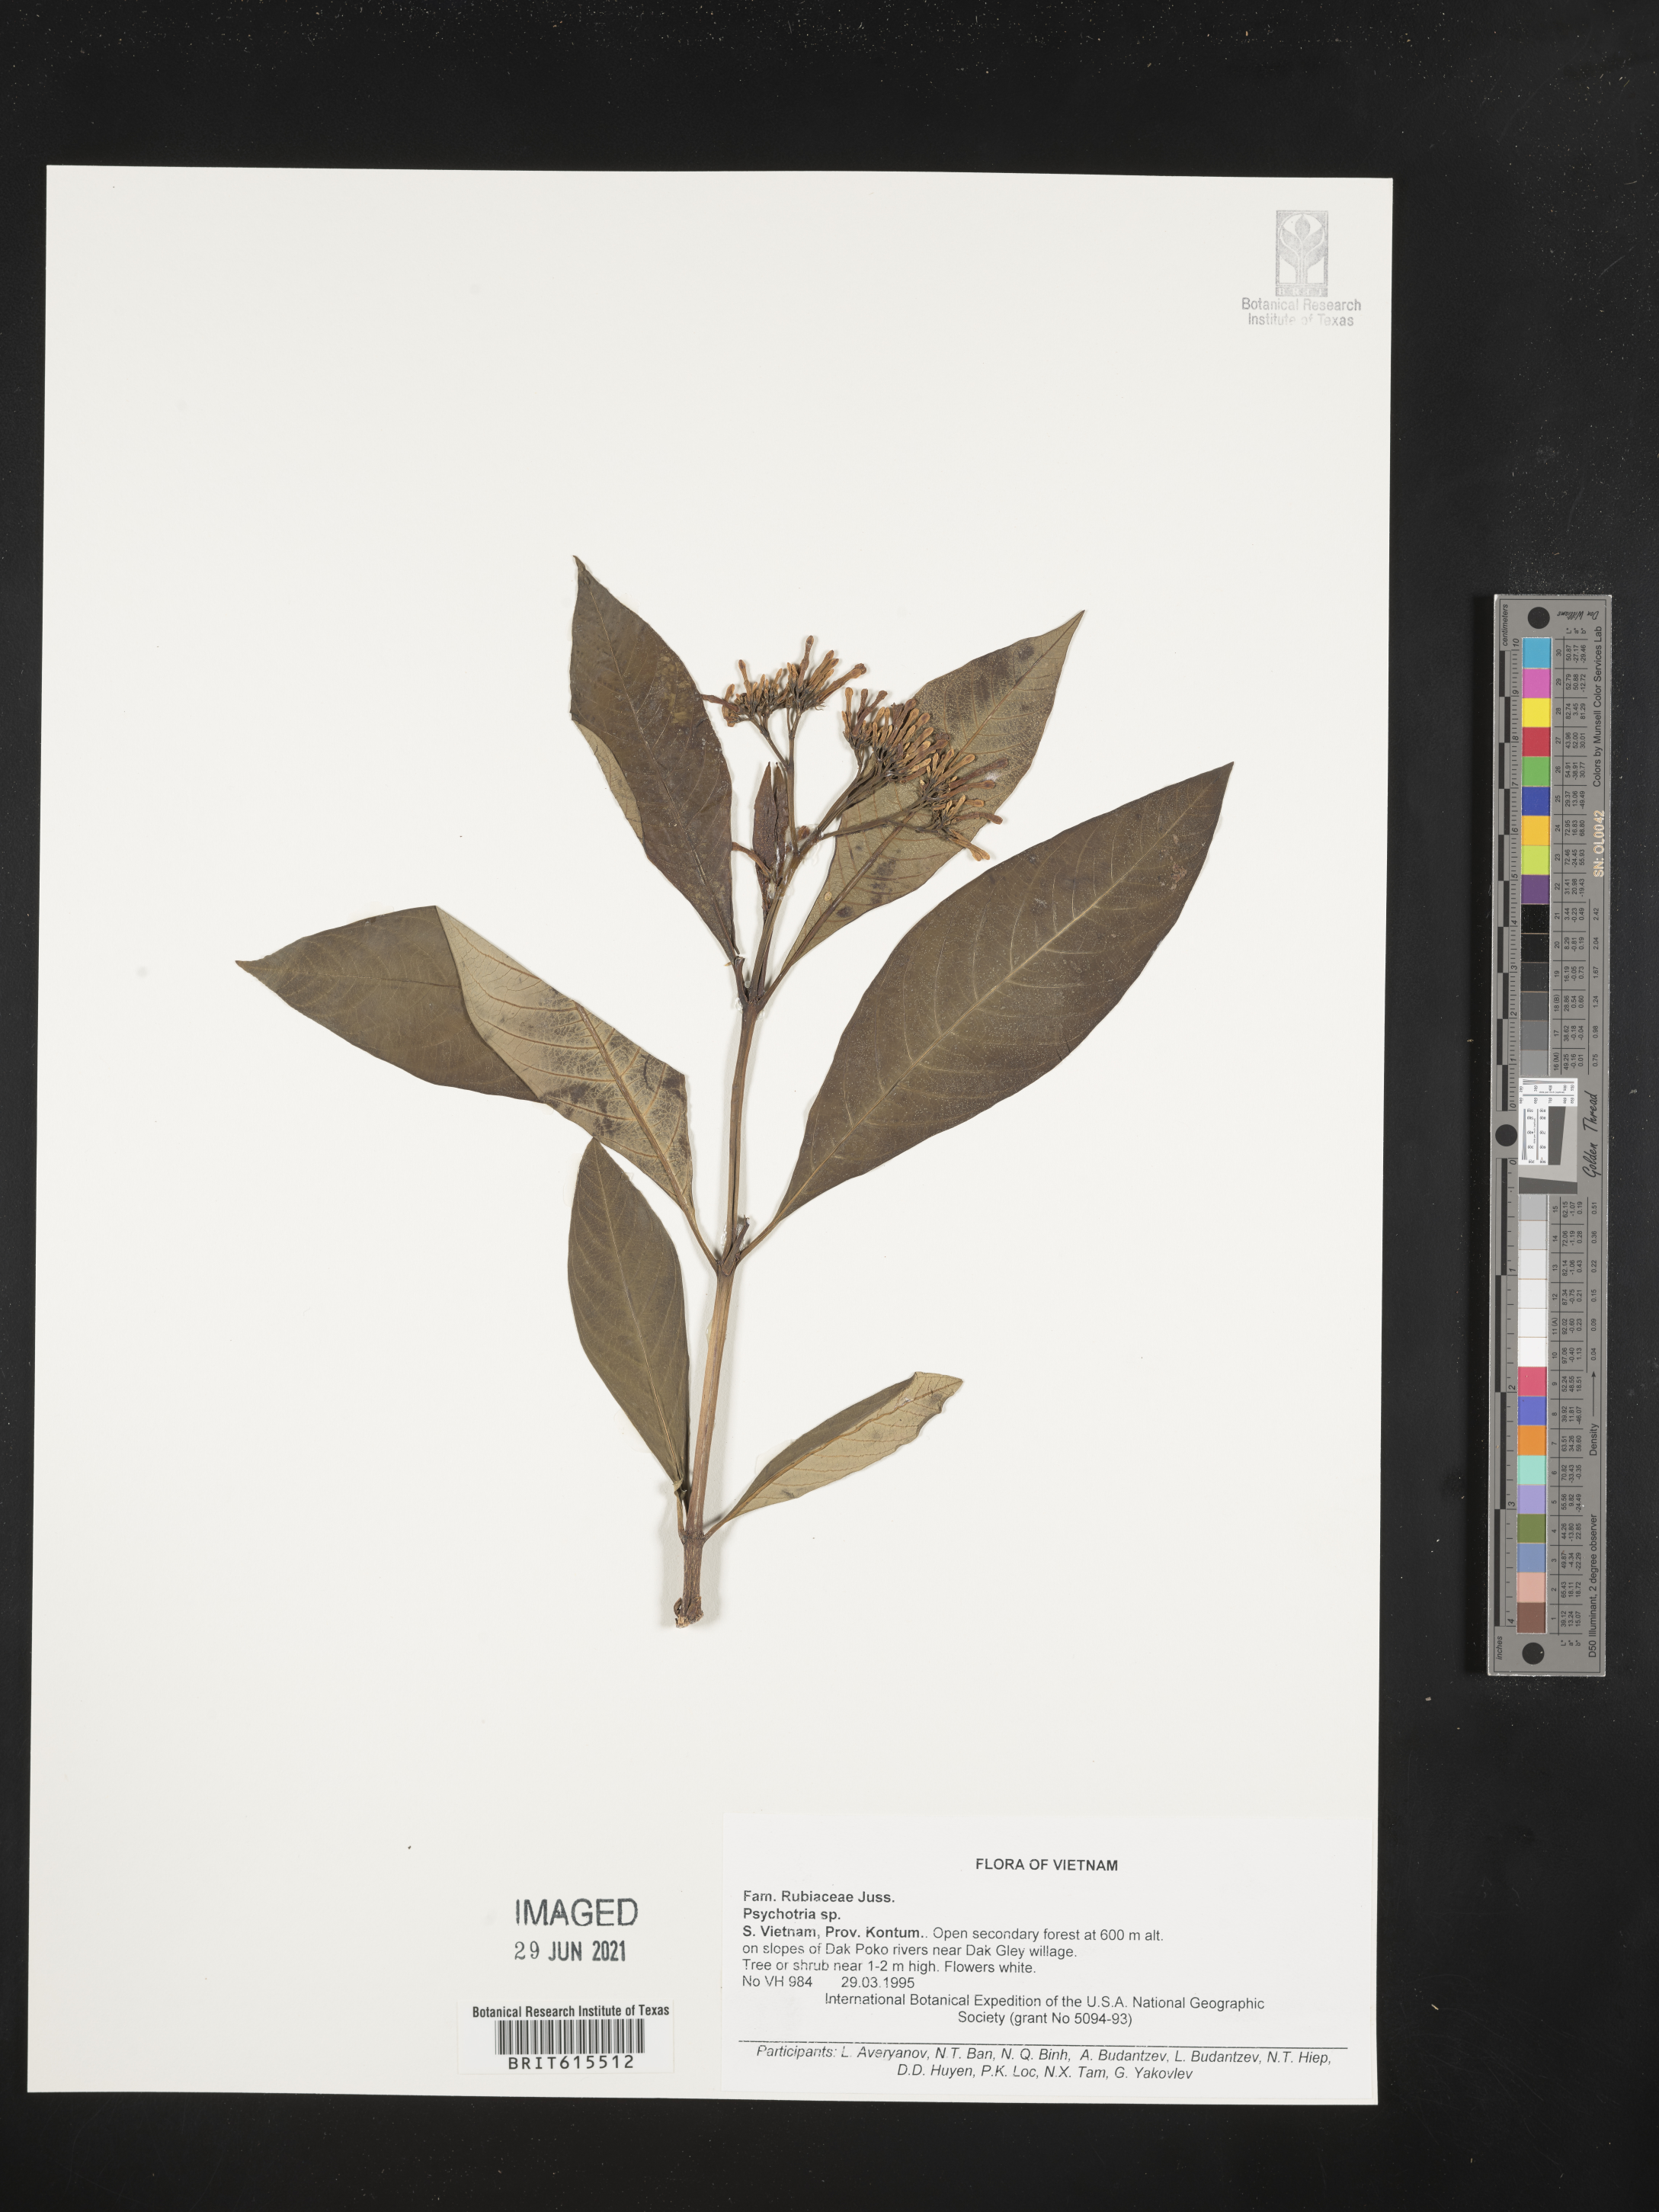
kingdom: Plantae
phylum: Tracheophyta
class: Magnoliopsida
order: Gentianales
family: Rubiaceae
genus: Psychotria
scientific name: Psychotria
